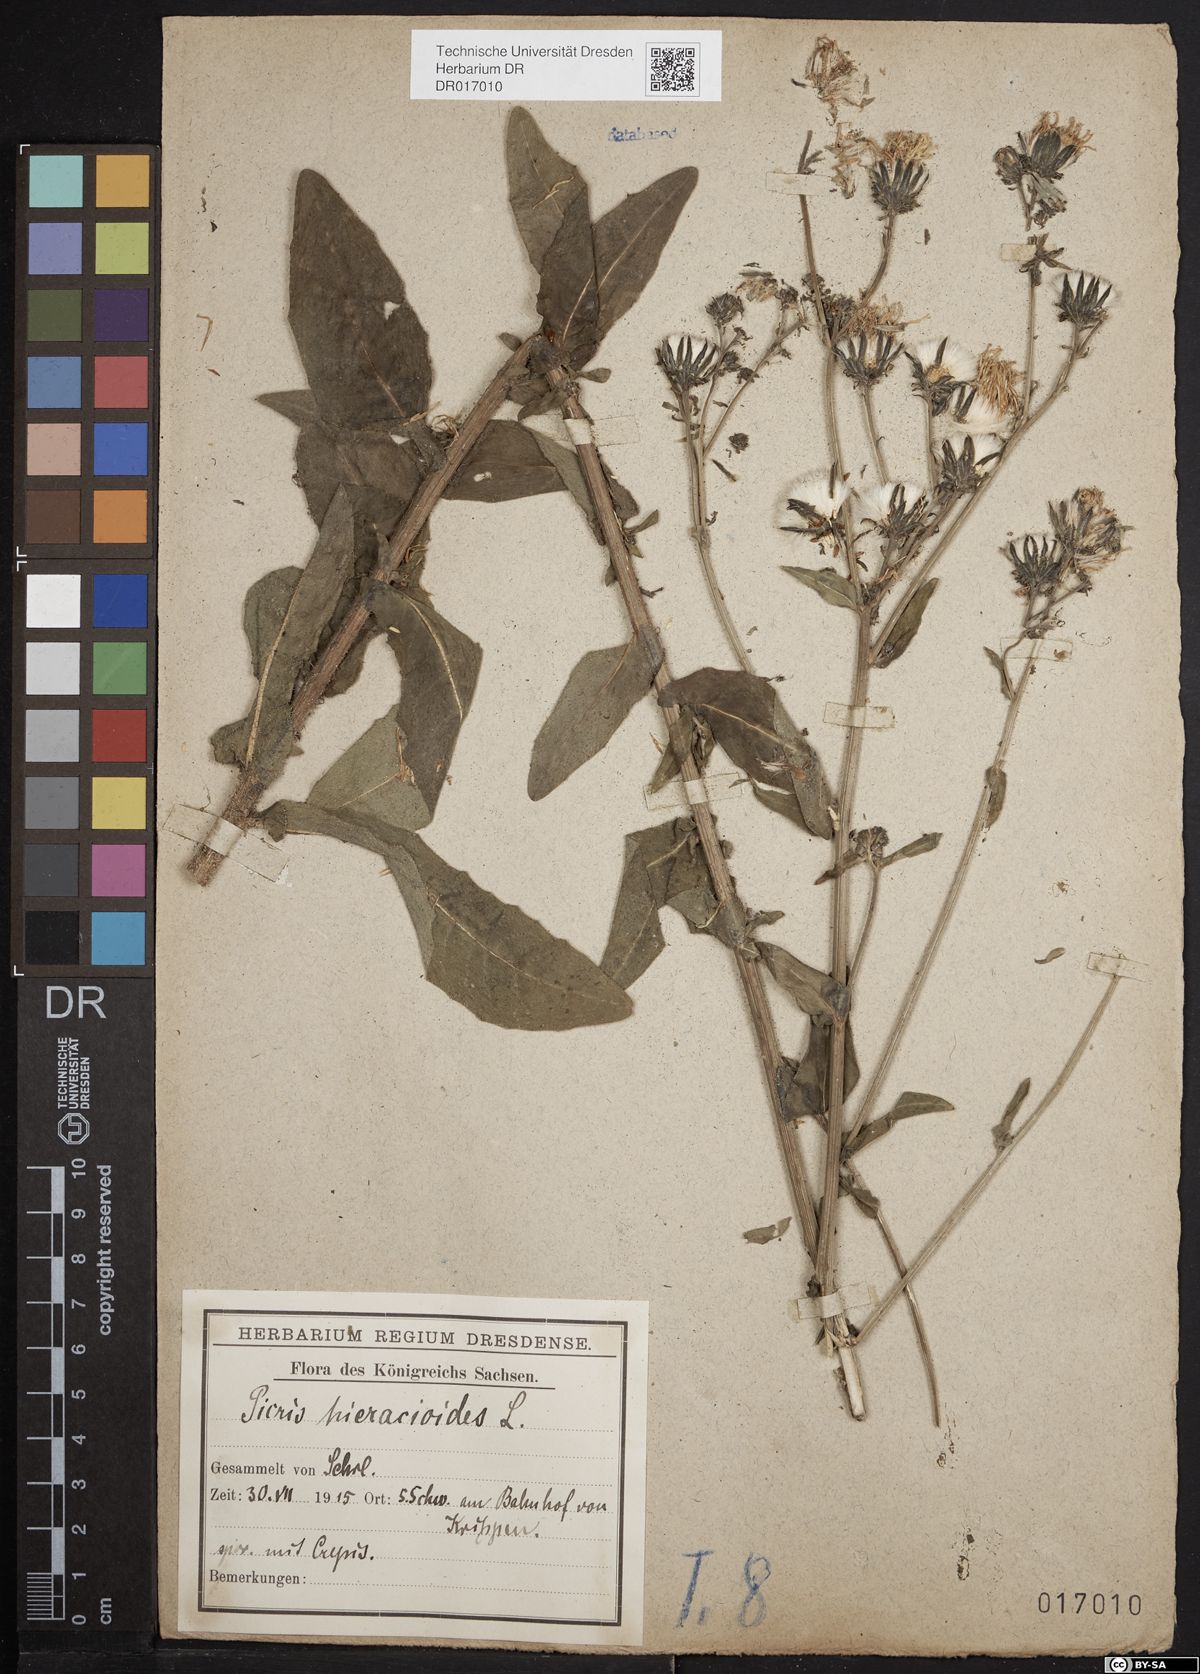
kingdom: Plantae
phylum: Tracheophyta
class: Magnoliopsida
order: Asterales
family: Asteraceae
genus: Picris
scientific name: Picris hieracioides
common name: Hawkweed oxtongue
